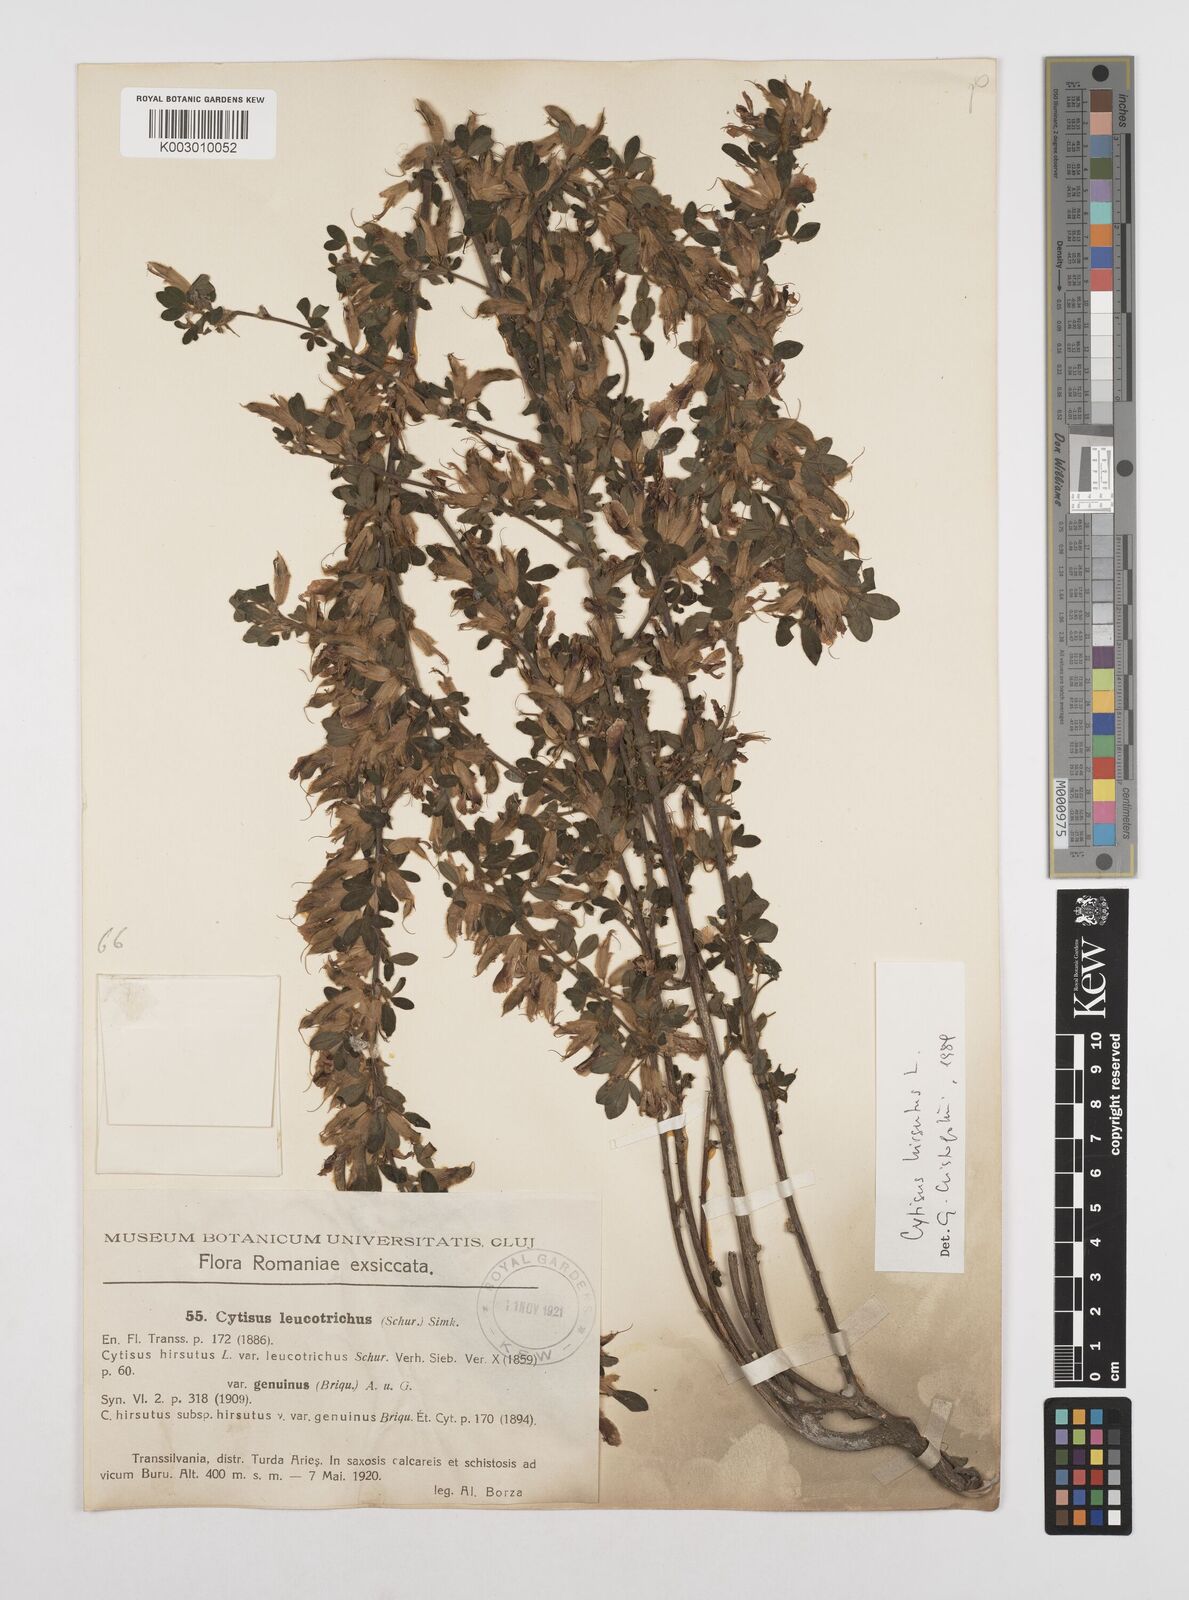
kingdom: Plantae
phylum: Tracheophyta
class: Magnoliopsida
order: Fabales
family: Fabaceae
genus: Chamaecytisus
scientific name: Chamaecytisus hirsutus
